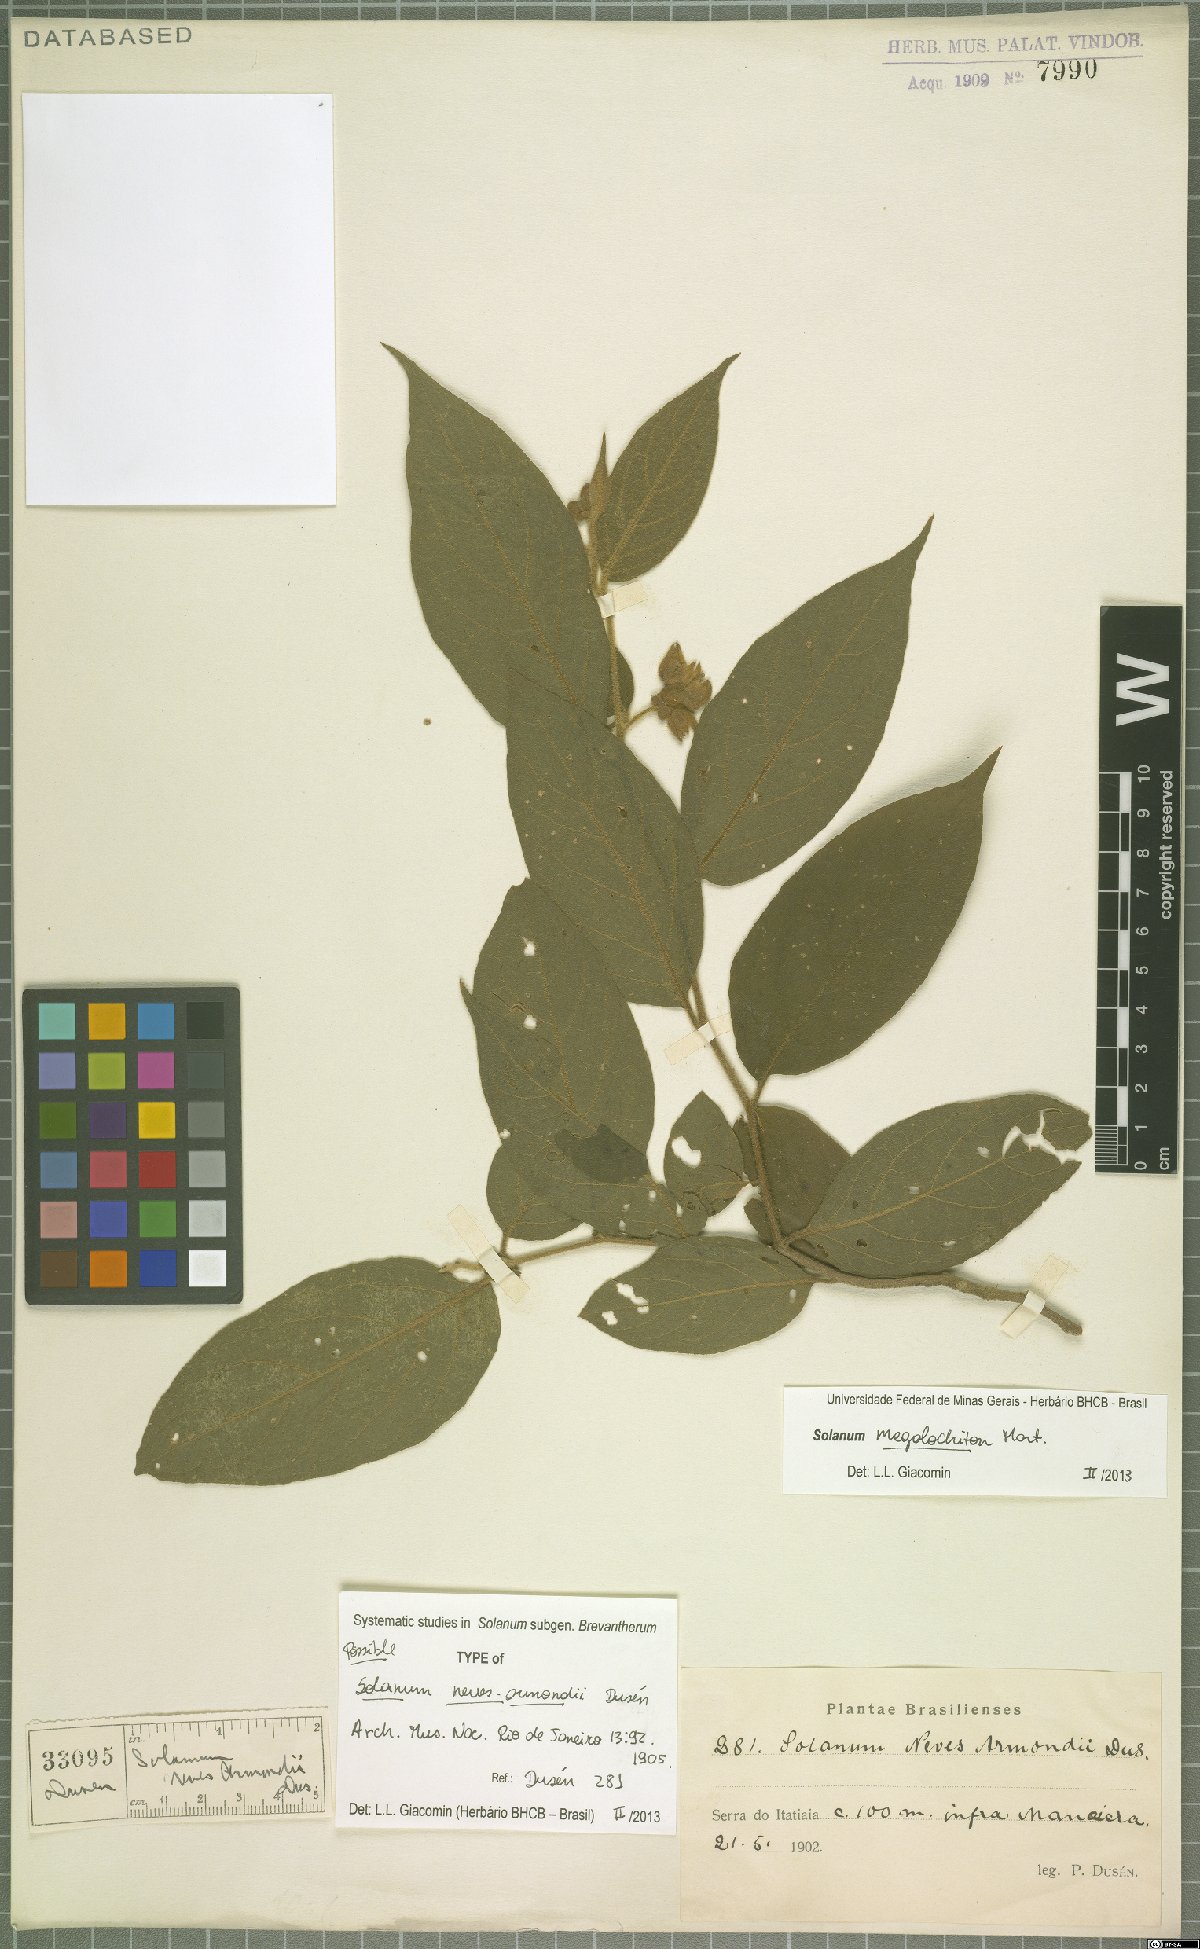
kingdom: Plantae
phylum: Tracheophyta
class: Magnoliopsida
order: Solanales
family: Solanaceae
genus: Solanum
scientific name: Solanum megalochiton
